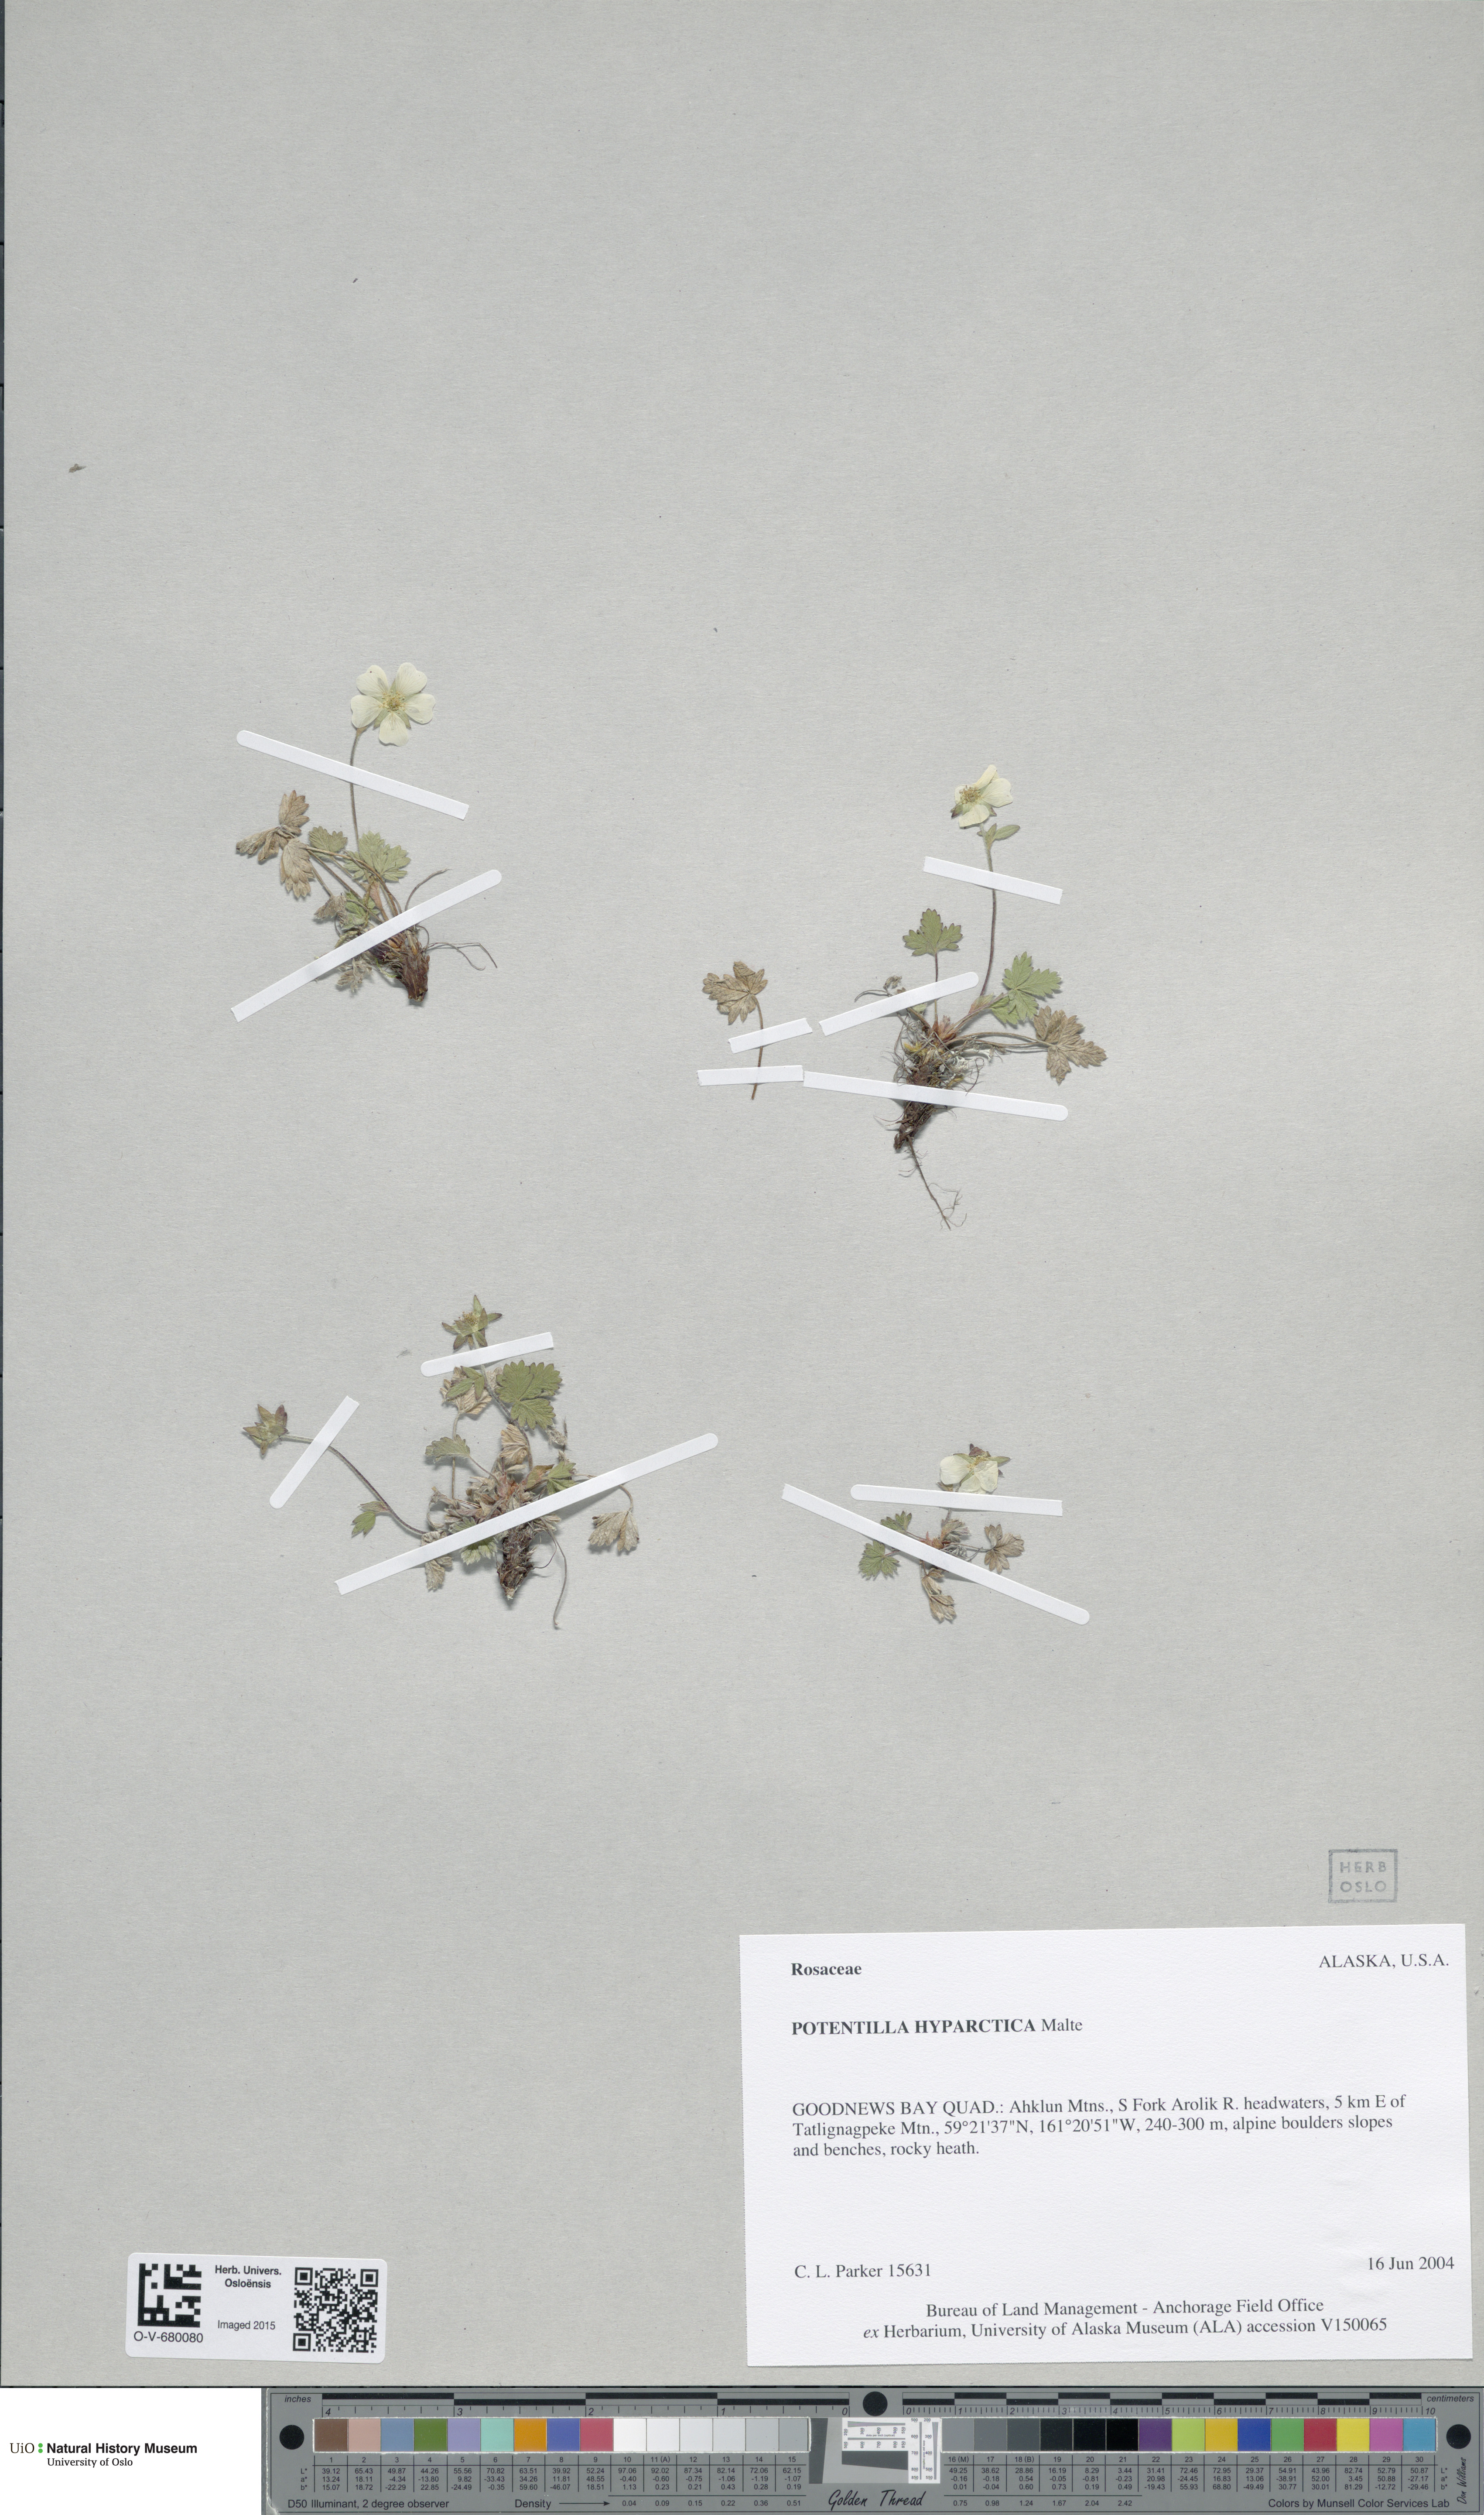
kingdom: Plantae
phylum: Tracheophyta
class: Magnoliopsida
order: Rosales
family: Rosaceae
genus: Potentilla
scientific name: Potentilla hyparctica
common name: Arctic cinquefoil
